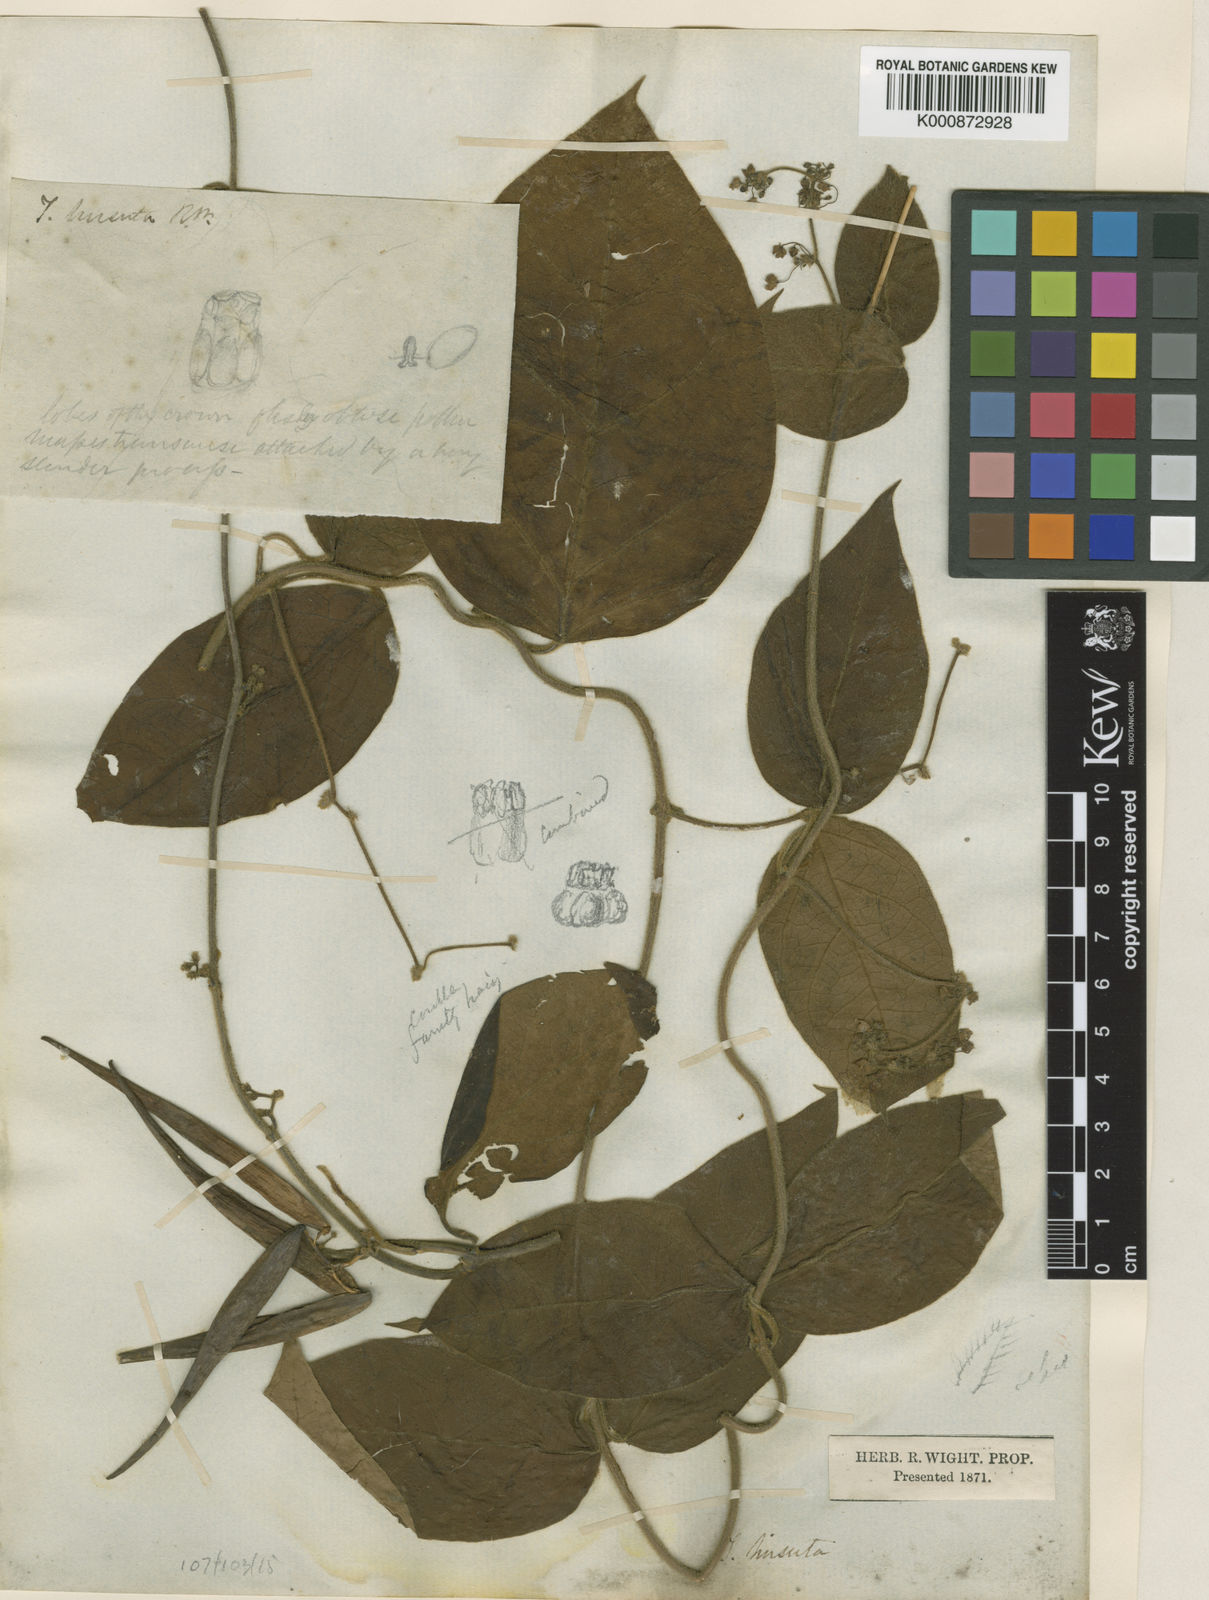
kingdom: Plantae
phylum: Tracheophyta
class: Magnoliopsida
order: Gentianales
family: Apocynaceae
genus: Vincetoxicum
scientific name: Vincetoxicum hirsutum
